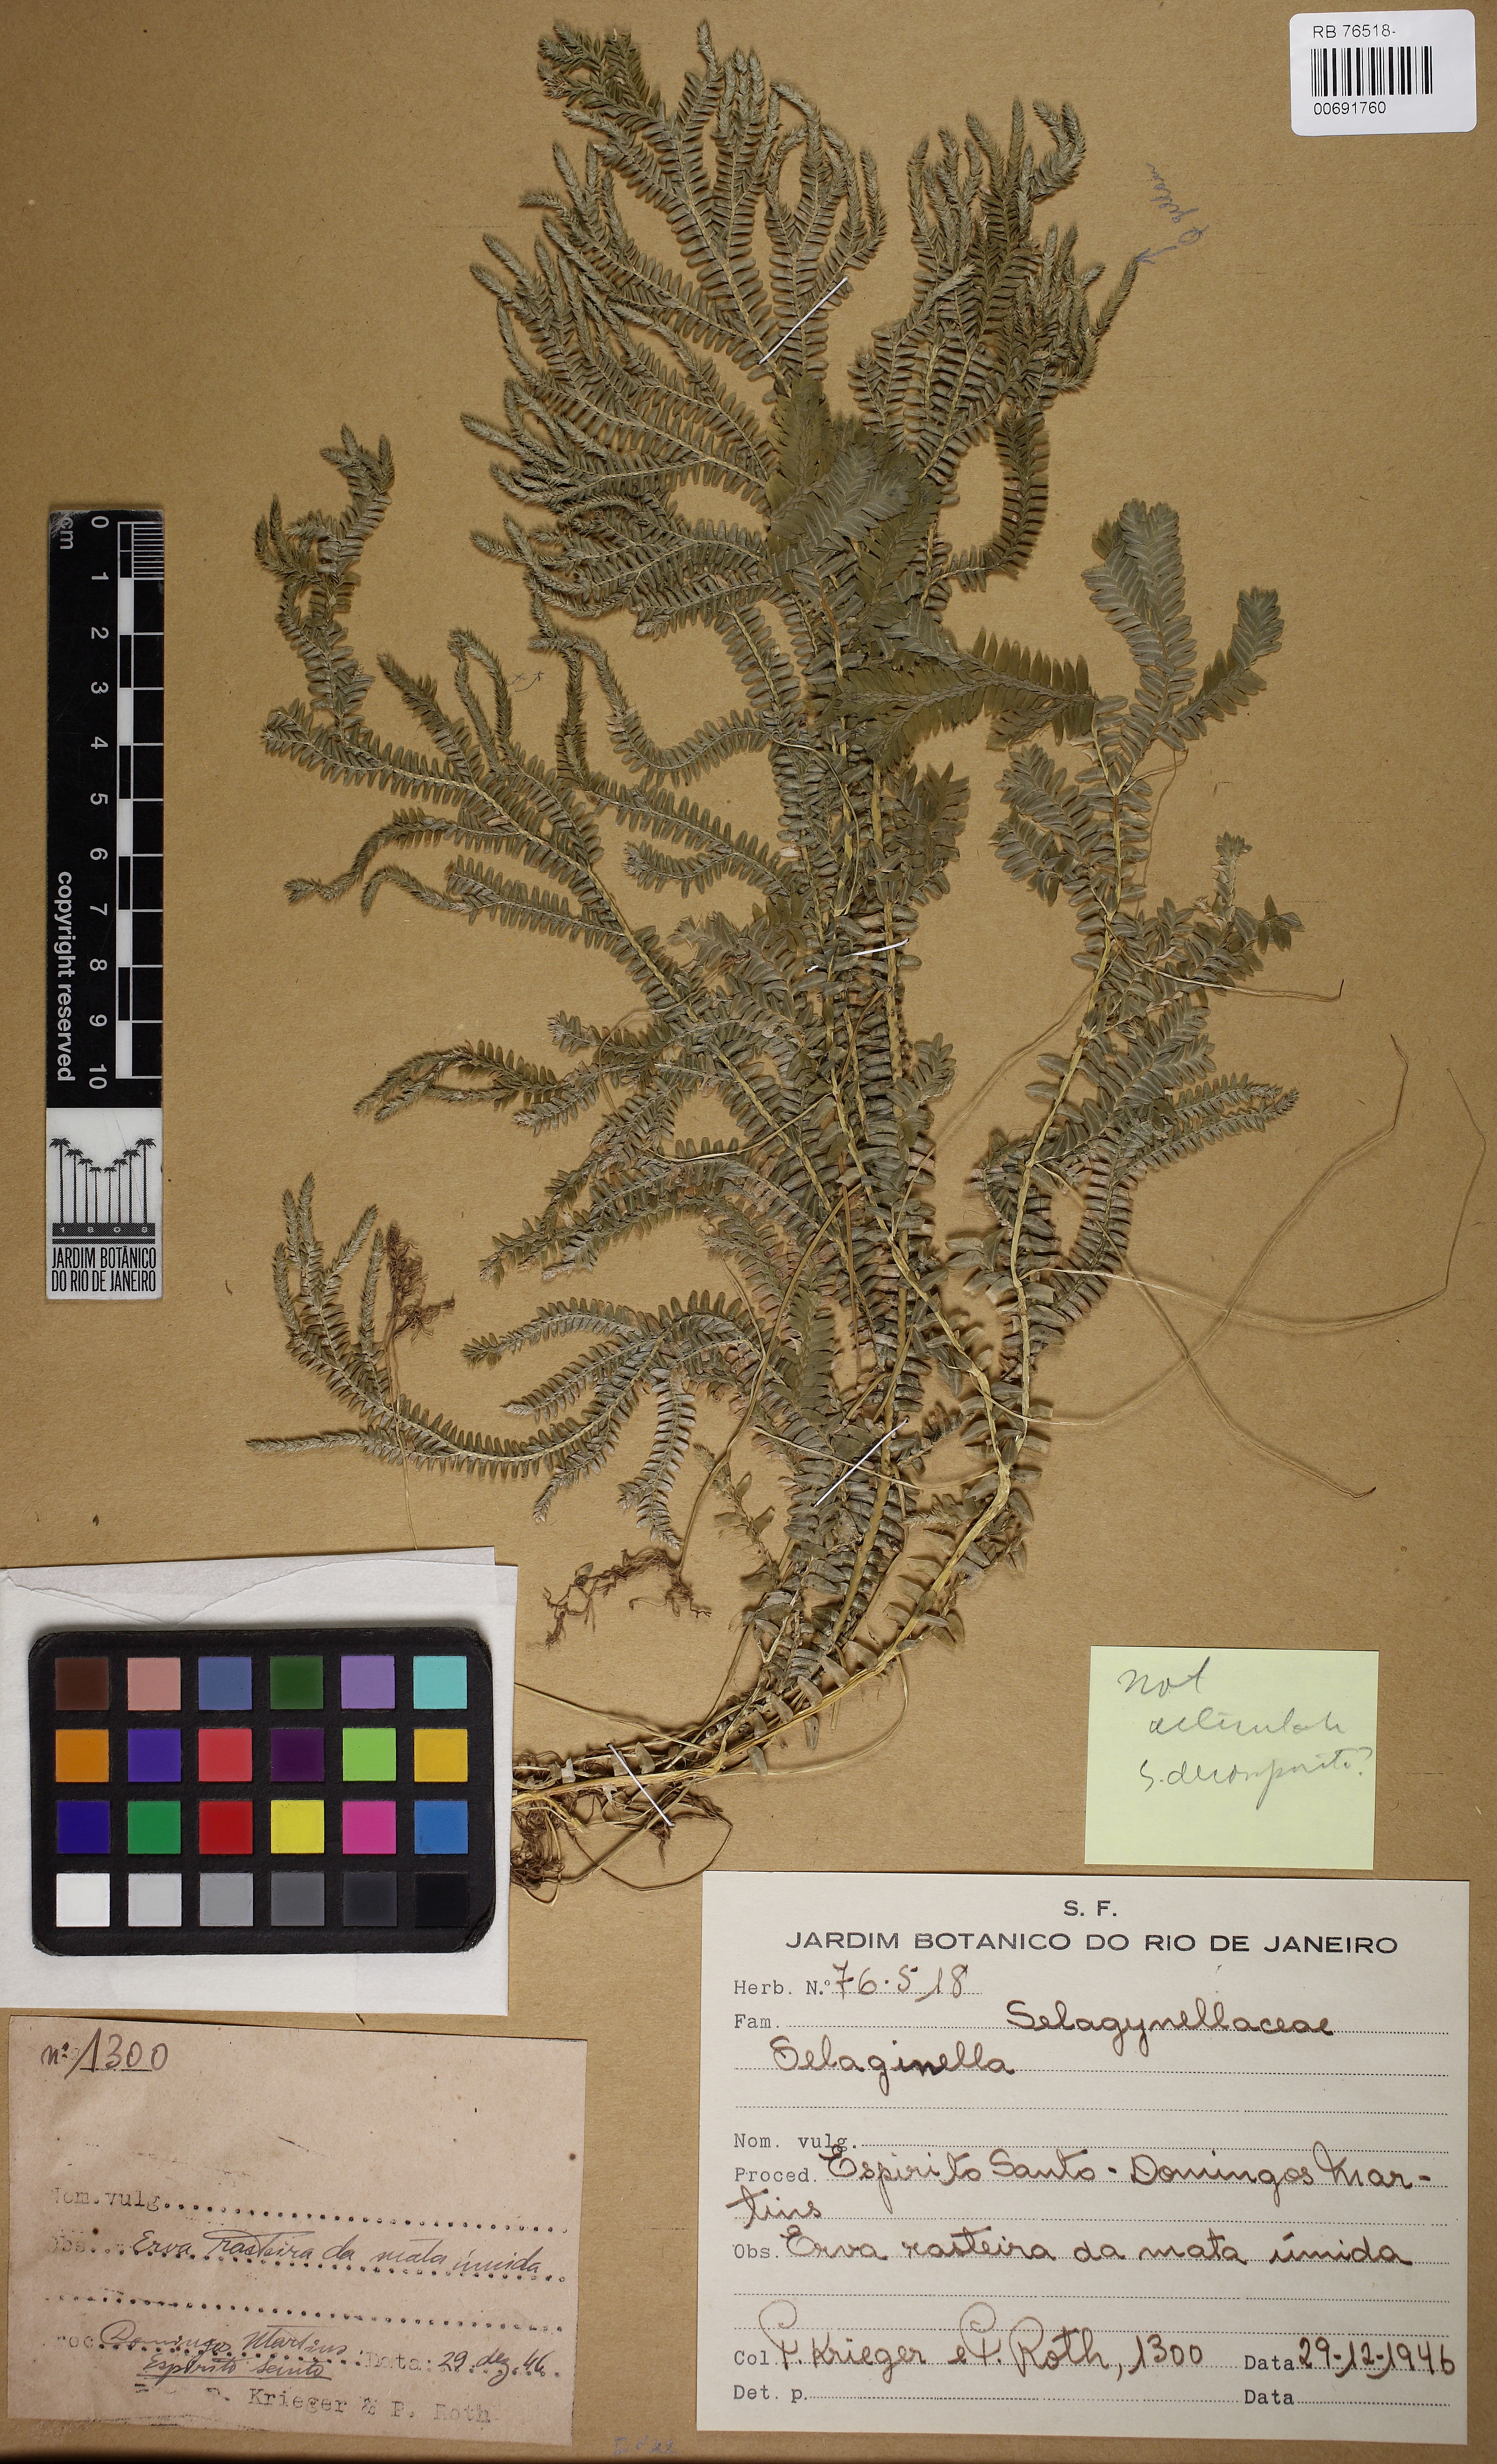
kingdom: Plantae
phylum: Tracheophyta
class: Lycopodiopsida
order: Selaginellales
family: Selaginellaceae
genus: Selaginella
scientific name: Selaginella
